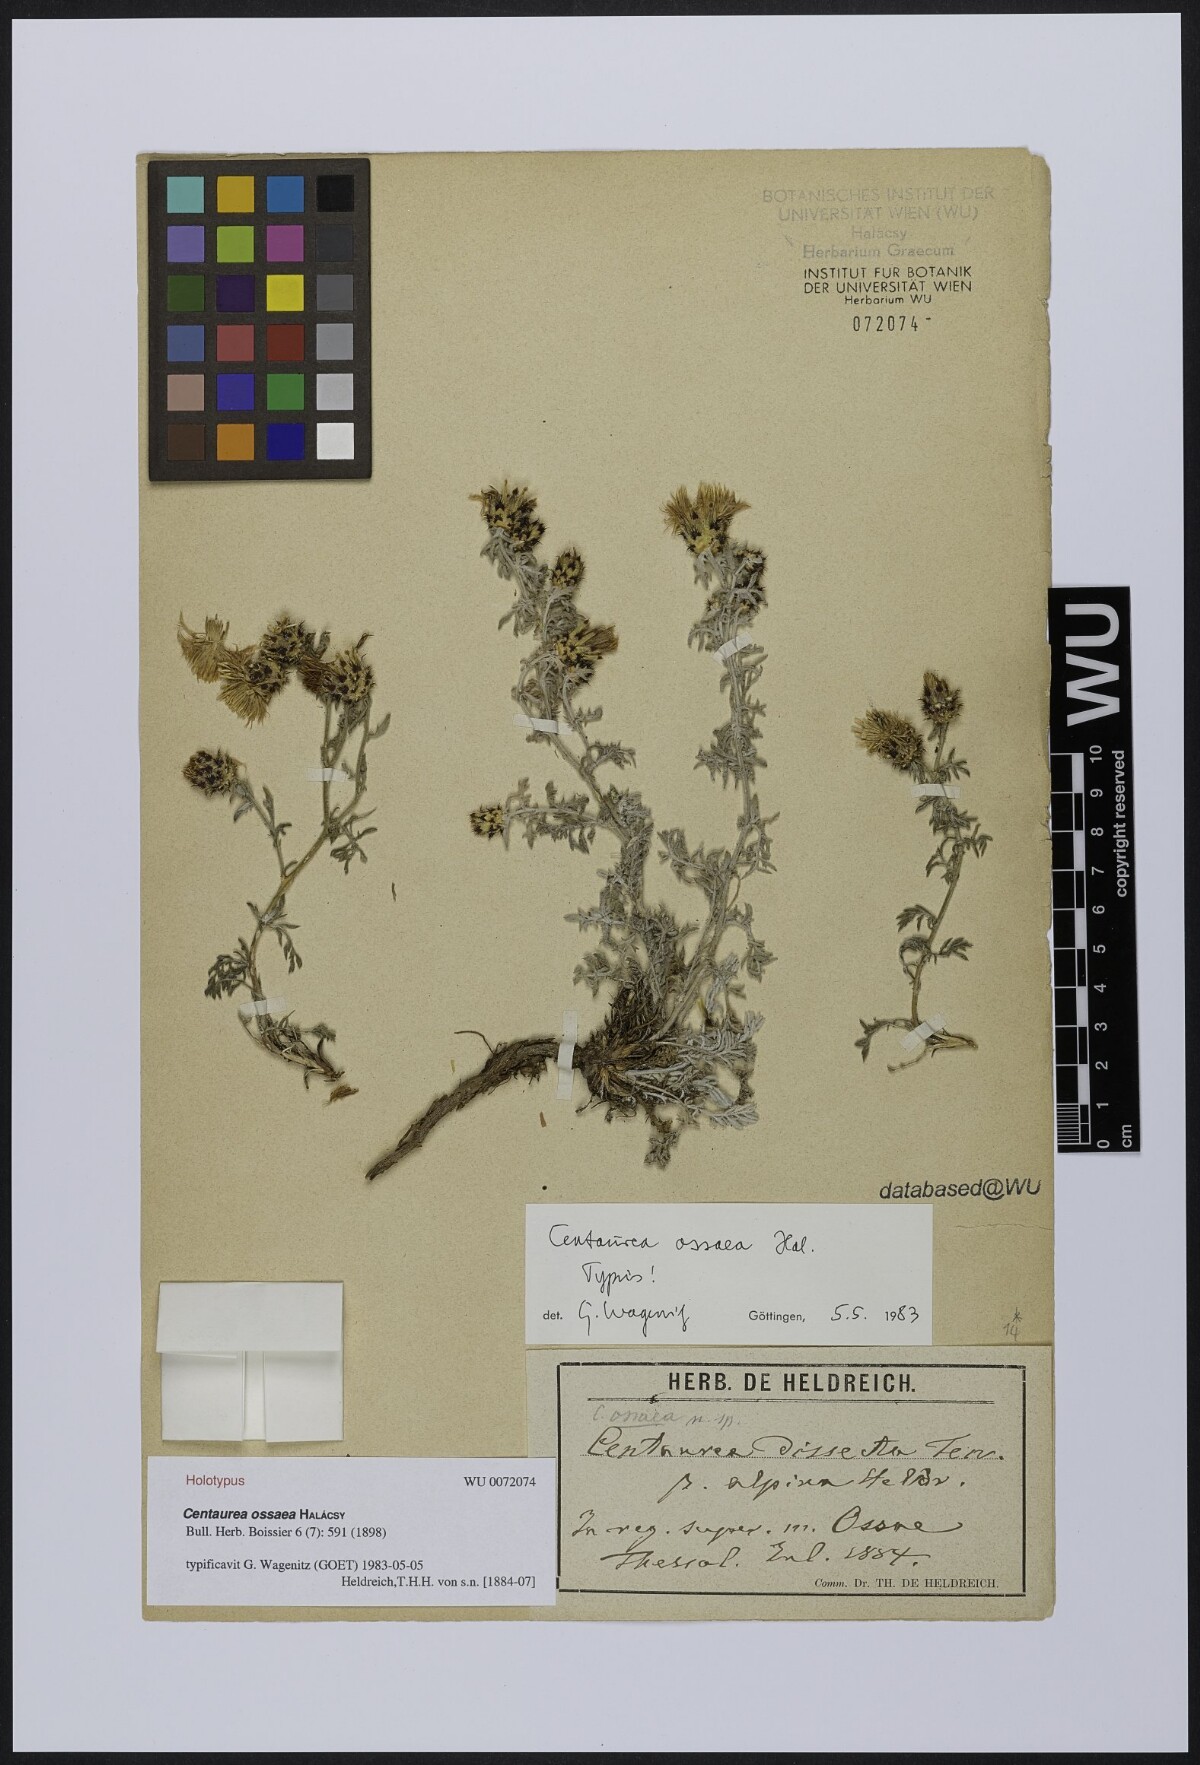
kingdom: Plantae
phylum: Tracheophyta
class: Magnoliopsida
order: Asterales
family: Asteraceae
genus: Centaurea
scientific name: Centaurea ossaea
